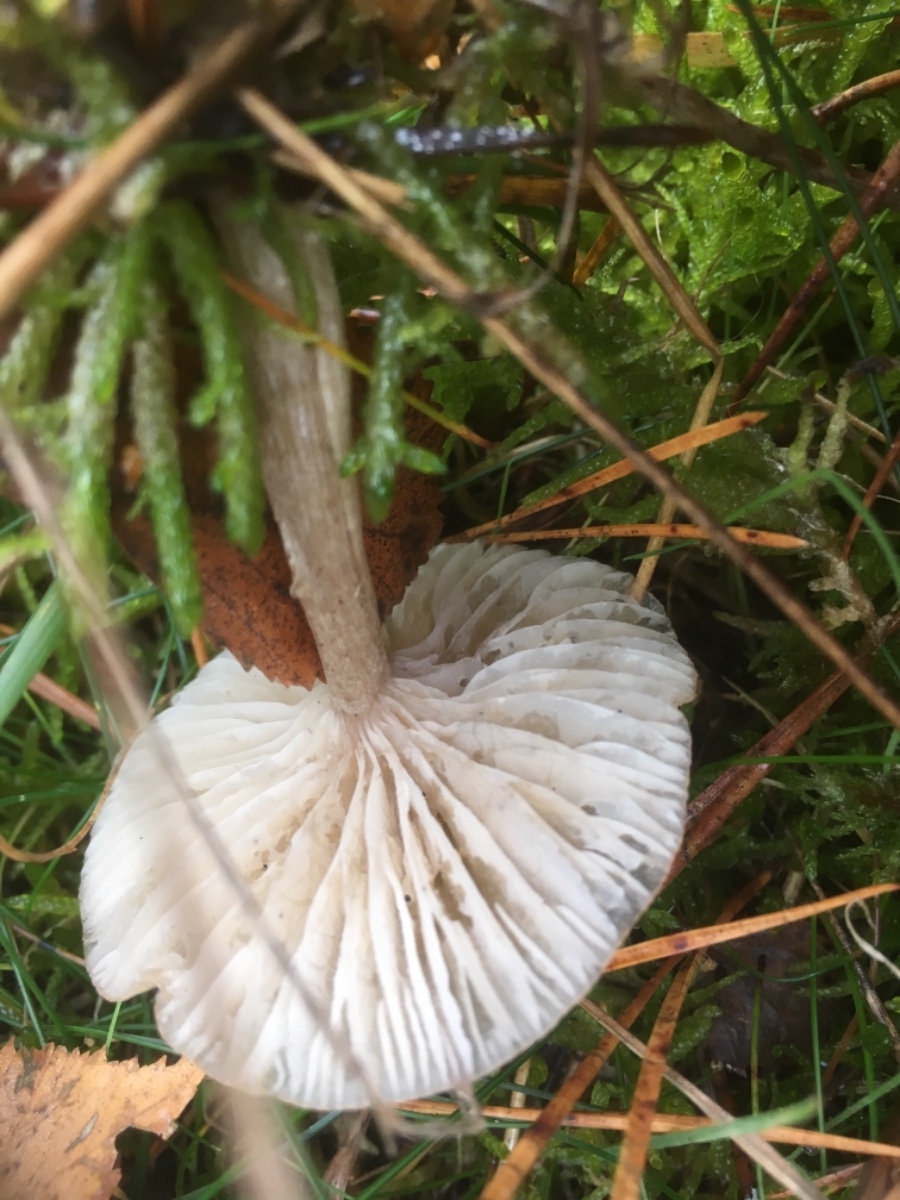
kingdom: Fungi
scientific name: Fungi
